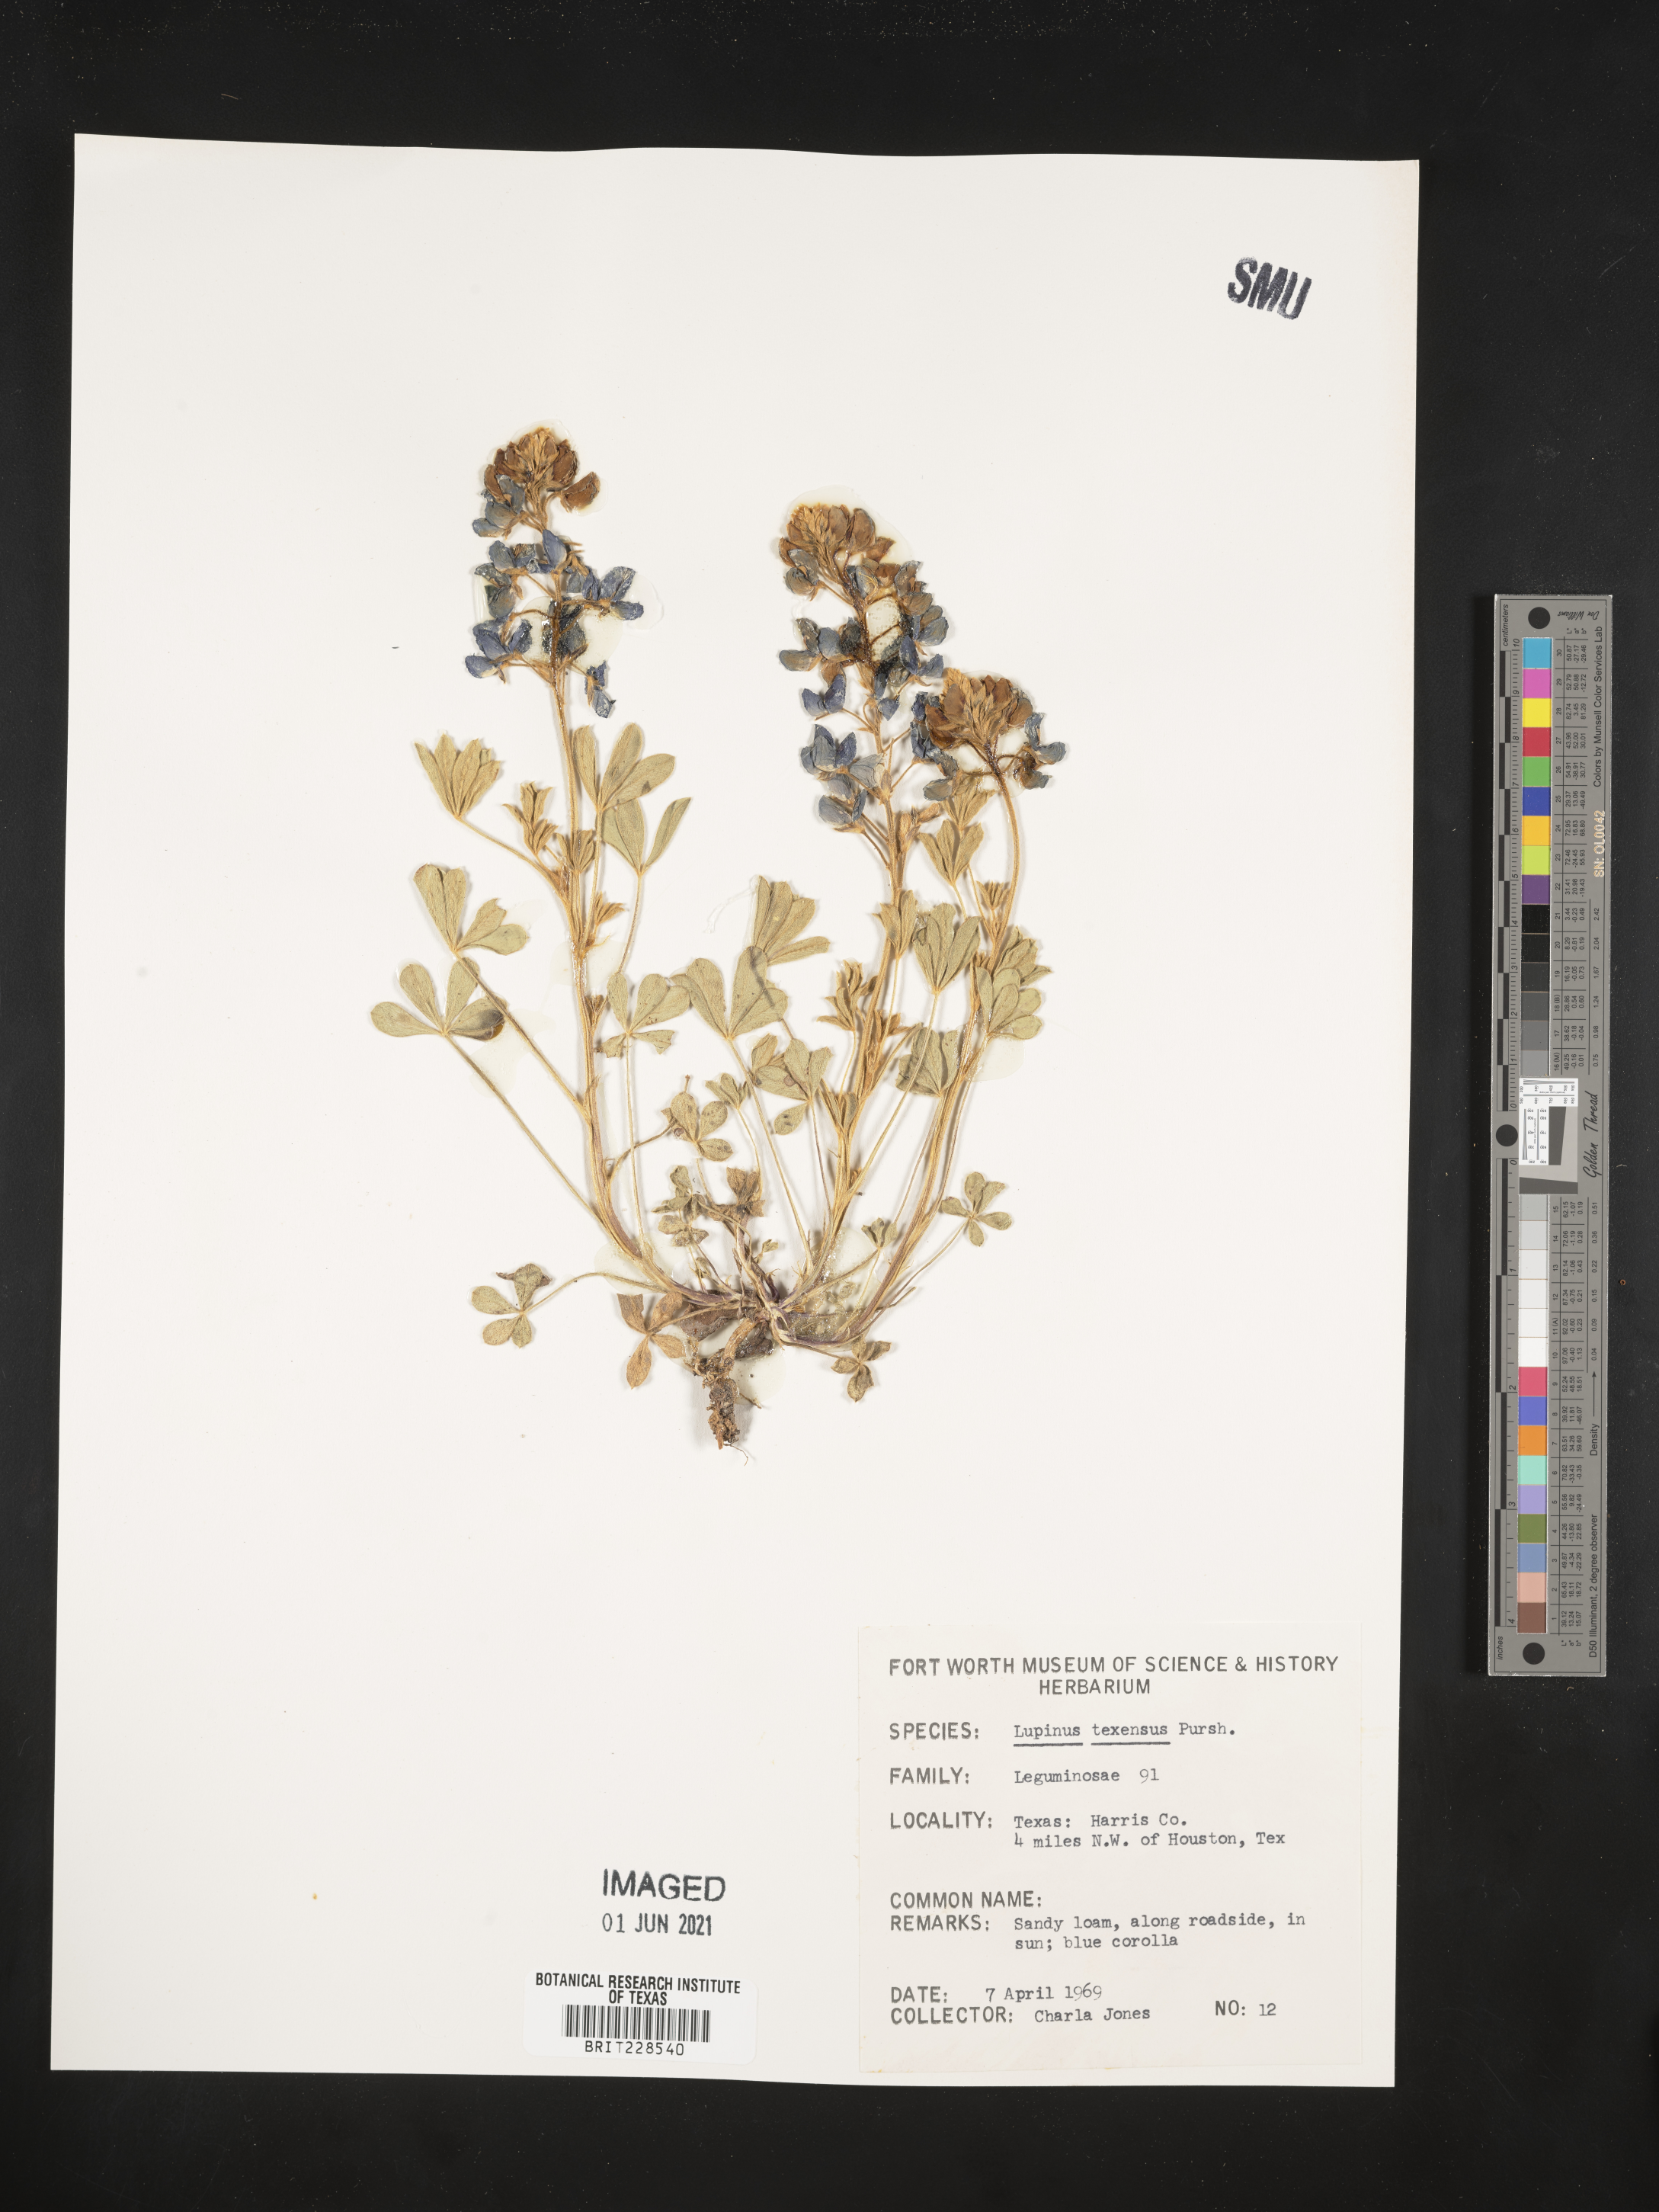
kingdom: Plantae
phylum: Tracheophyta
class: Magnoliopsida
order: Fabales
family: Fabaceae
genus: Lupinus
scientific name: Lupinus texensis
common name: Texas bluebonnet
